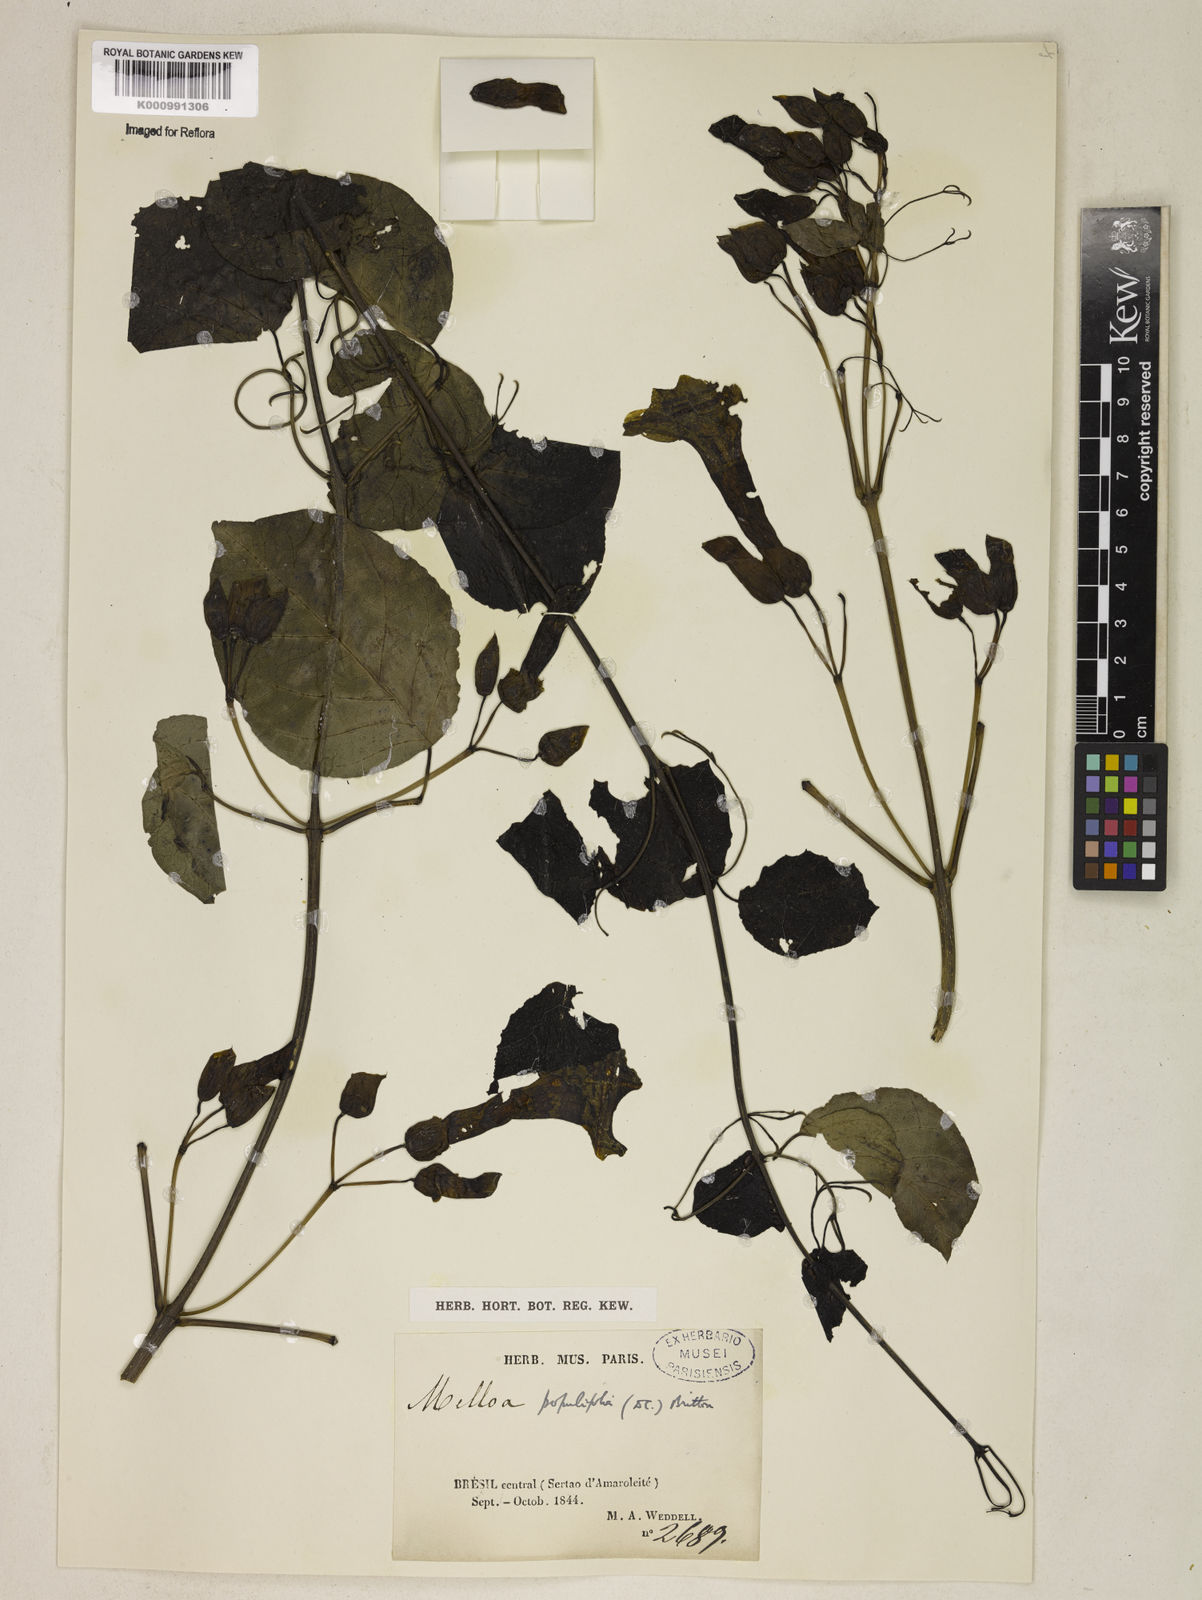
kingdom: Plantae
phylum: Tracheophyta
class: Magnoliopsida
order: Lamiales
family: Bignoniaceae
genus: Dolichandra
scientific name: Dolichandra quadrivalvis
